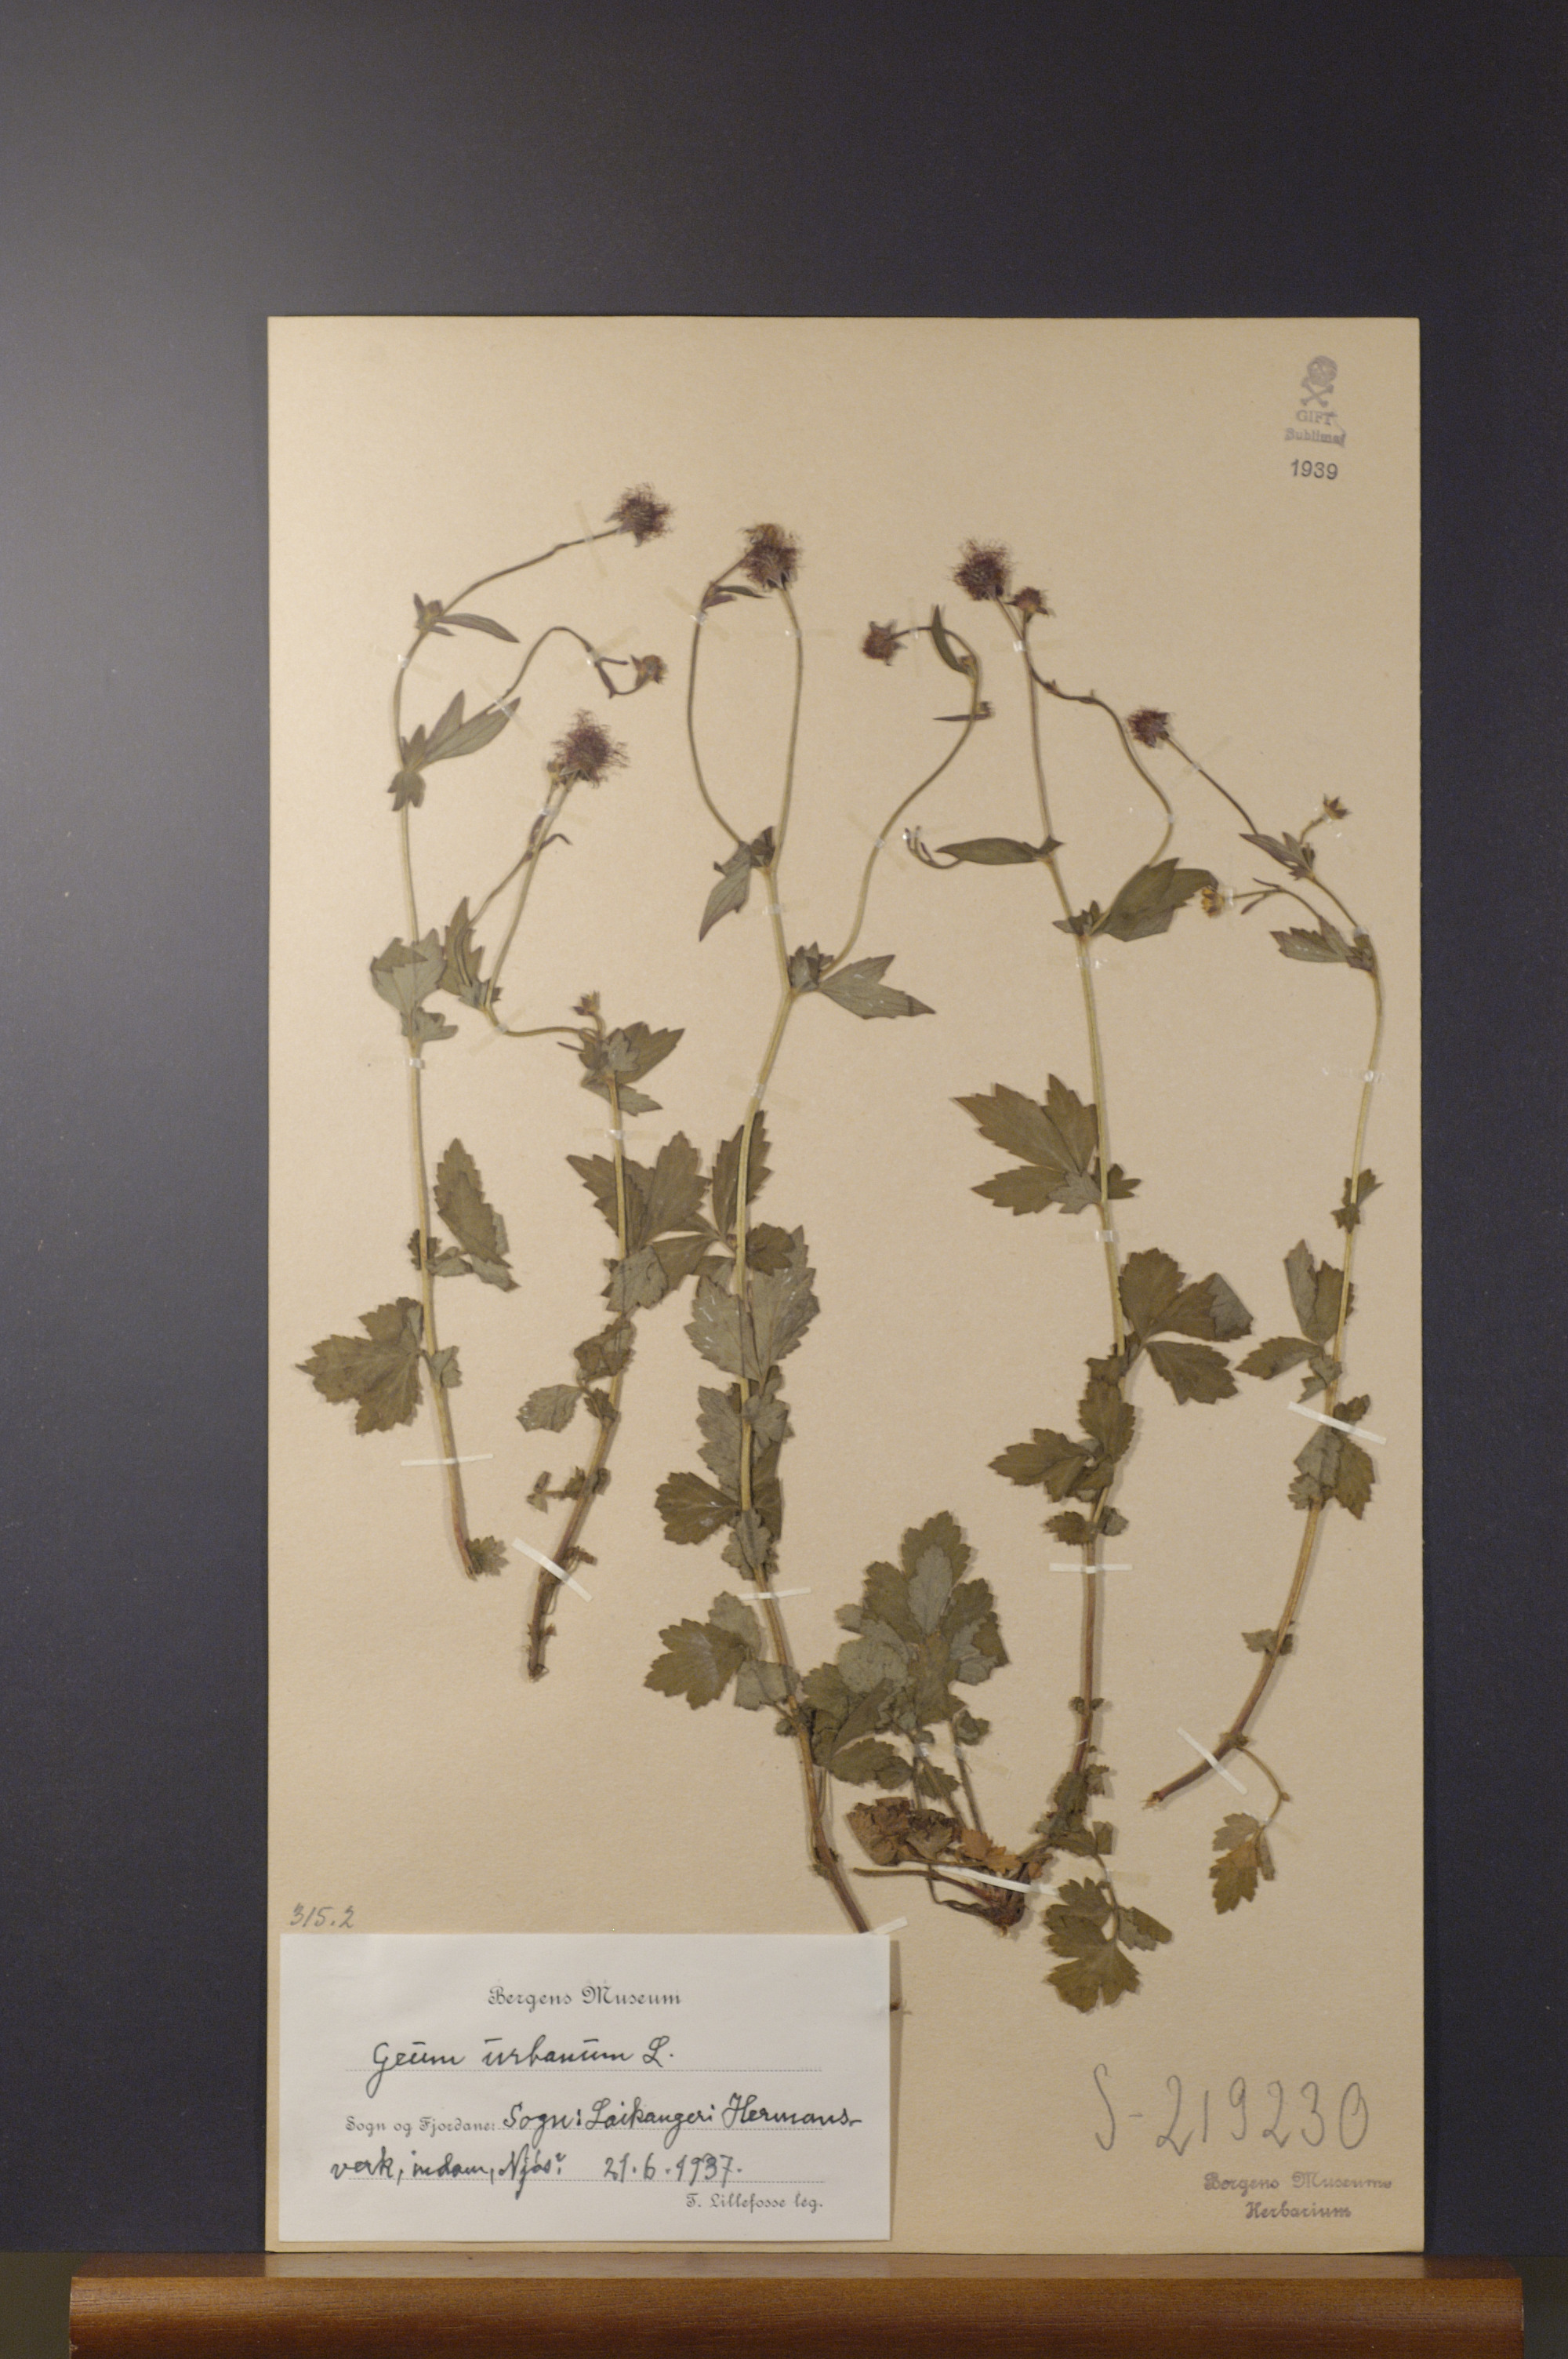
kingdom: Plantae
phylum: Tracheophyta
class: Magnoliopsida
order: Rosales
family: Rosaceae
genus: Geum
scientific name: Geum urbanum
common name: Wood avens
